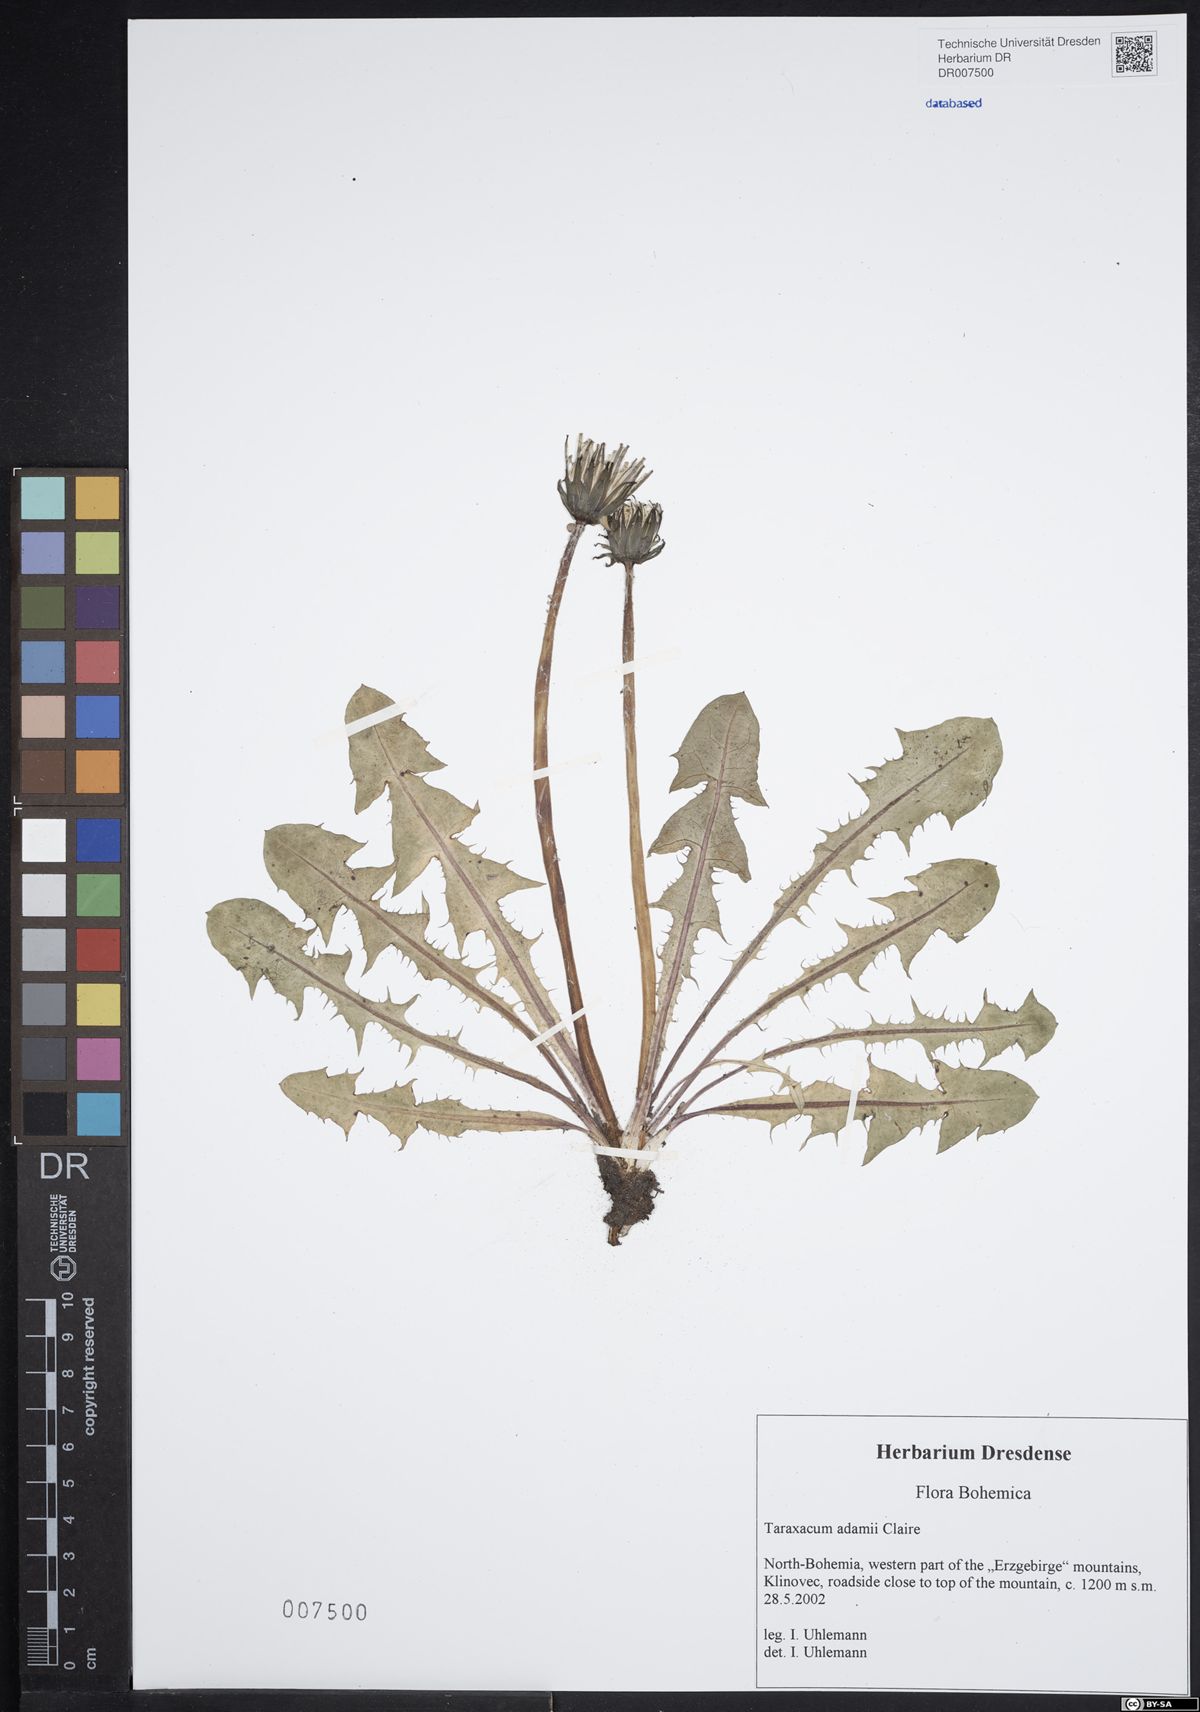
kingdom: Plantae
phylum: Tracheophyta
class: Magnoliopsida
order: Asterales
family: Asteraceae
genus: Taraxacum
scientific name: Taraxacum adamii
